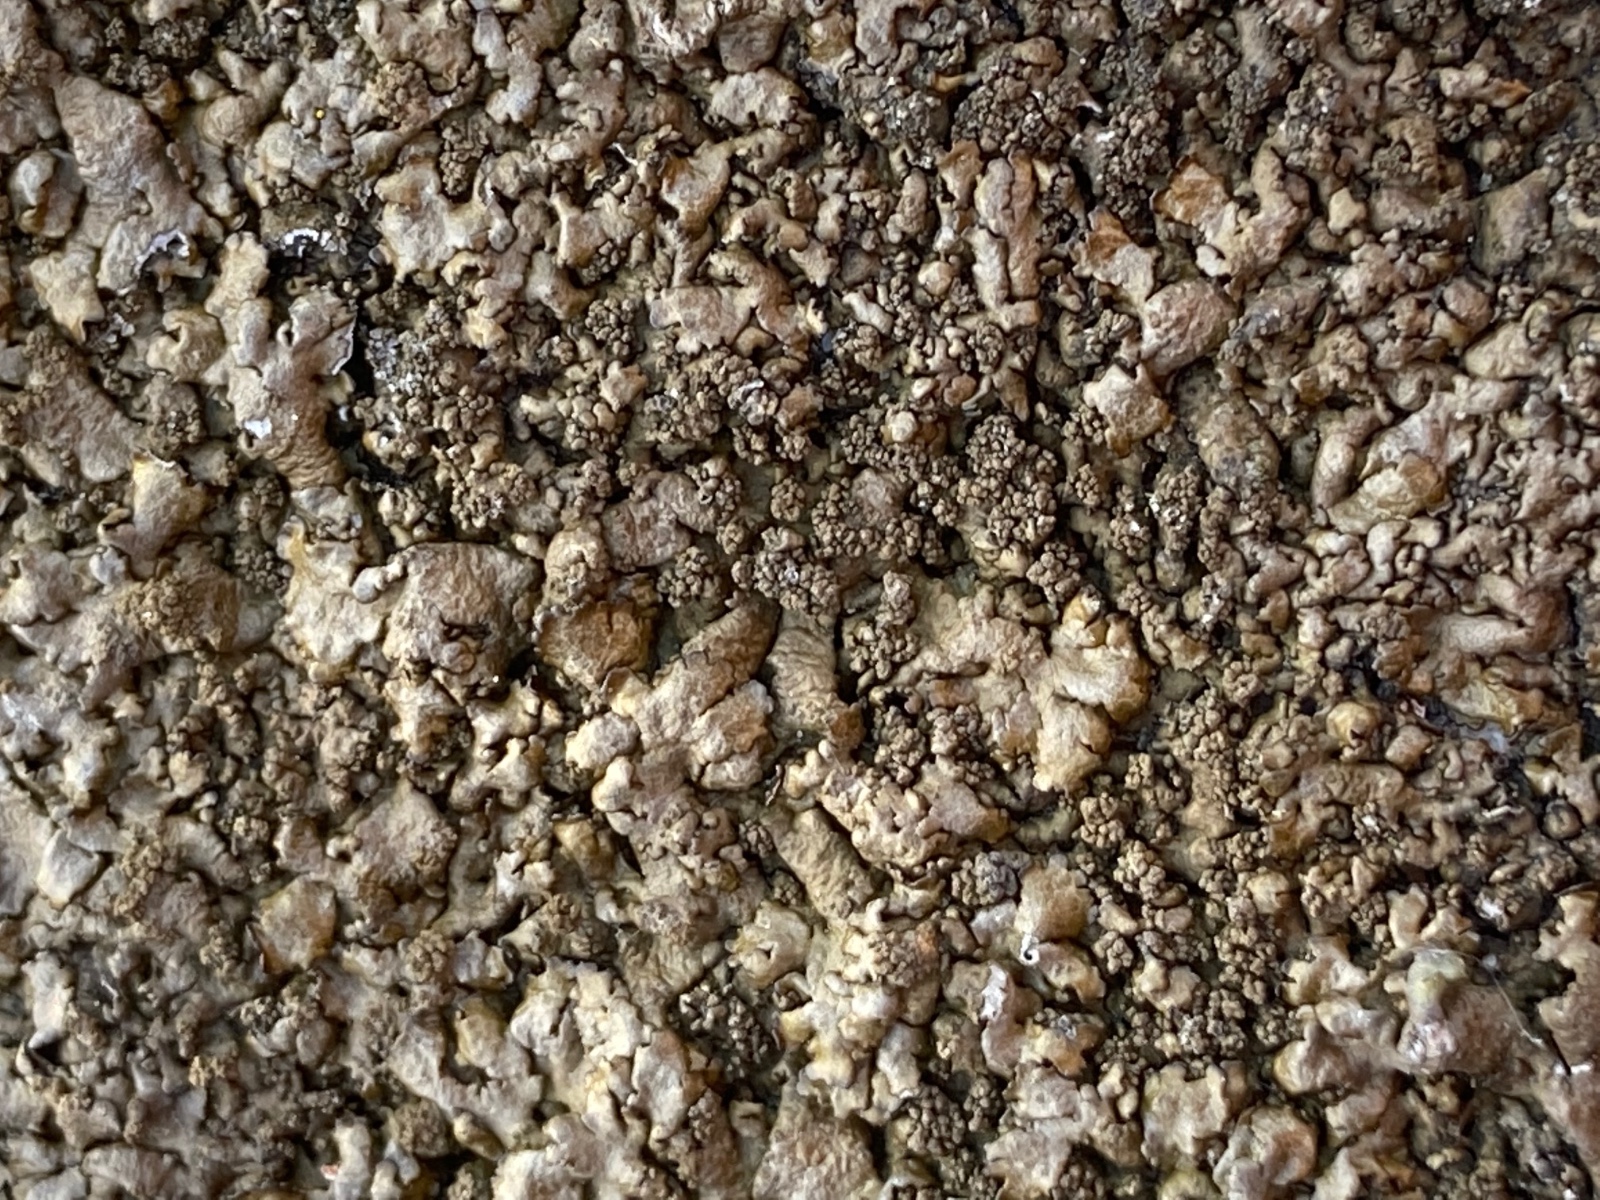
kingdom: Fungi
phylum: Ascomycota
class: Lecanoromycetes
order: Lecanorales
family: Parmeliaceae
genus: Xanthoparmelia
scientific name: Xanthoparmelia loxodes
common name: knudret skållav
